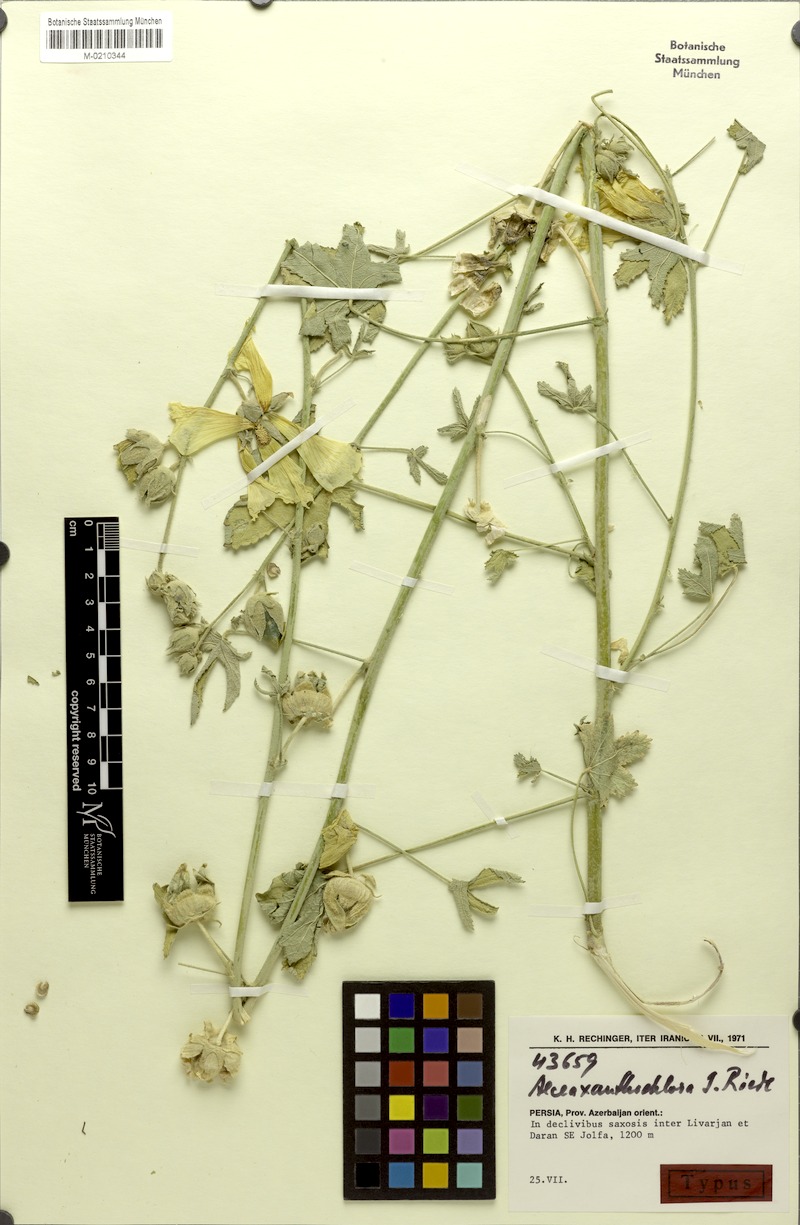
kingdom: Plantae
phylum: Tracheophyta
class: Magnoliopsida
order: Malvales
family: Malvaceae
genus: Alcea
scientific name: Alcea xanthochlora
